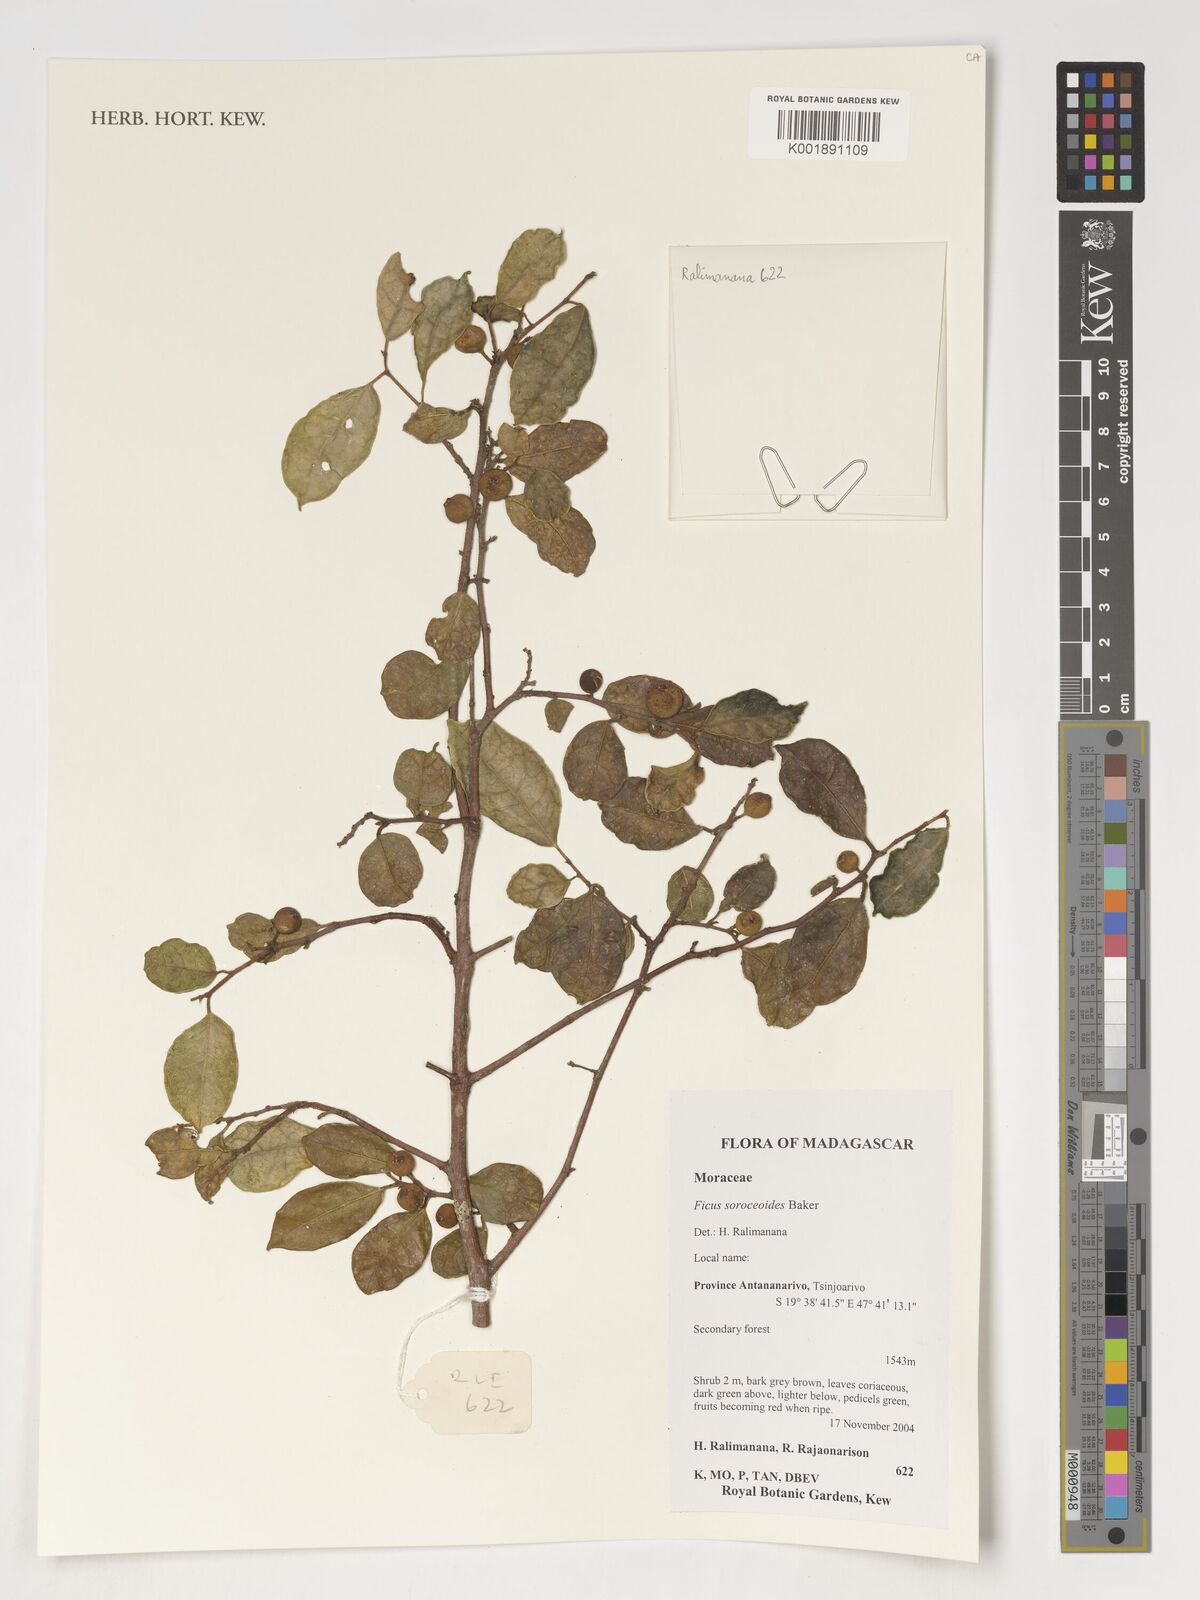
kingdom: Plantae
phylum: Tracheophyta
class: Magnoliopsida
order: Rosales
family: Moraceae
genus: Ficus
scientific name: Ficus politoria
